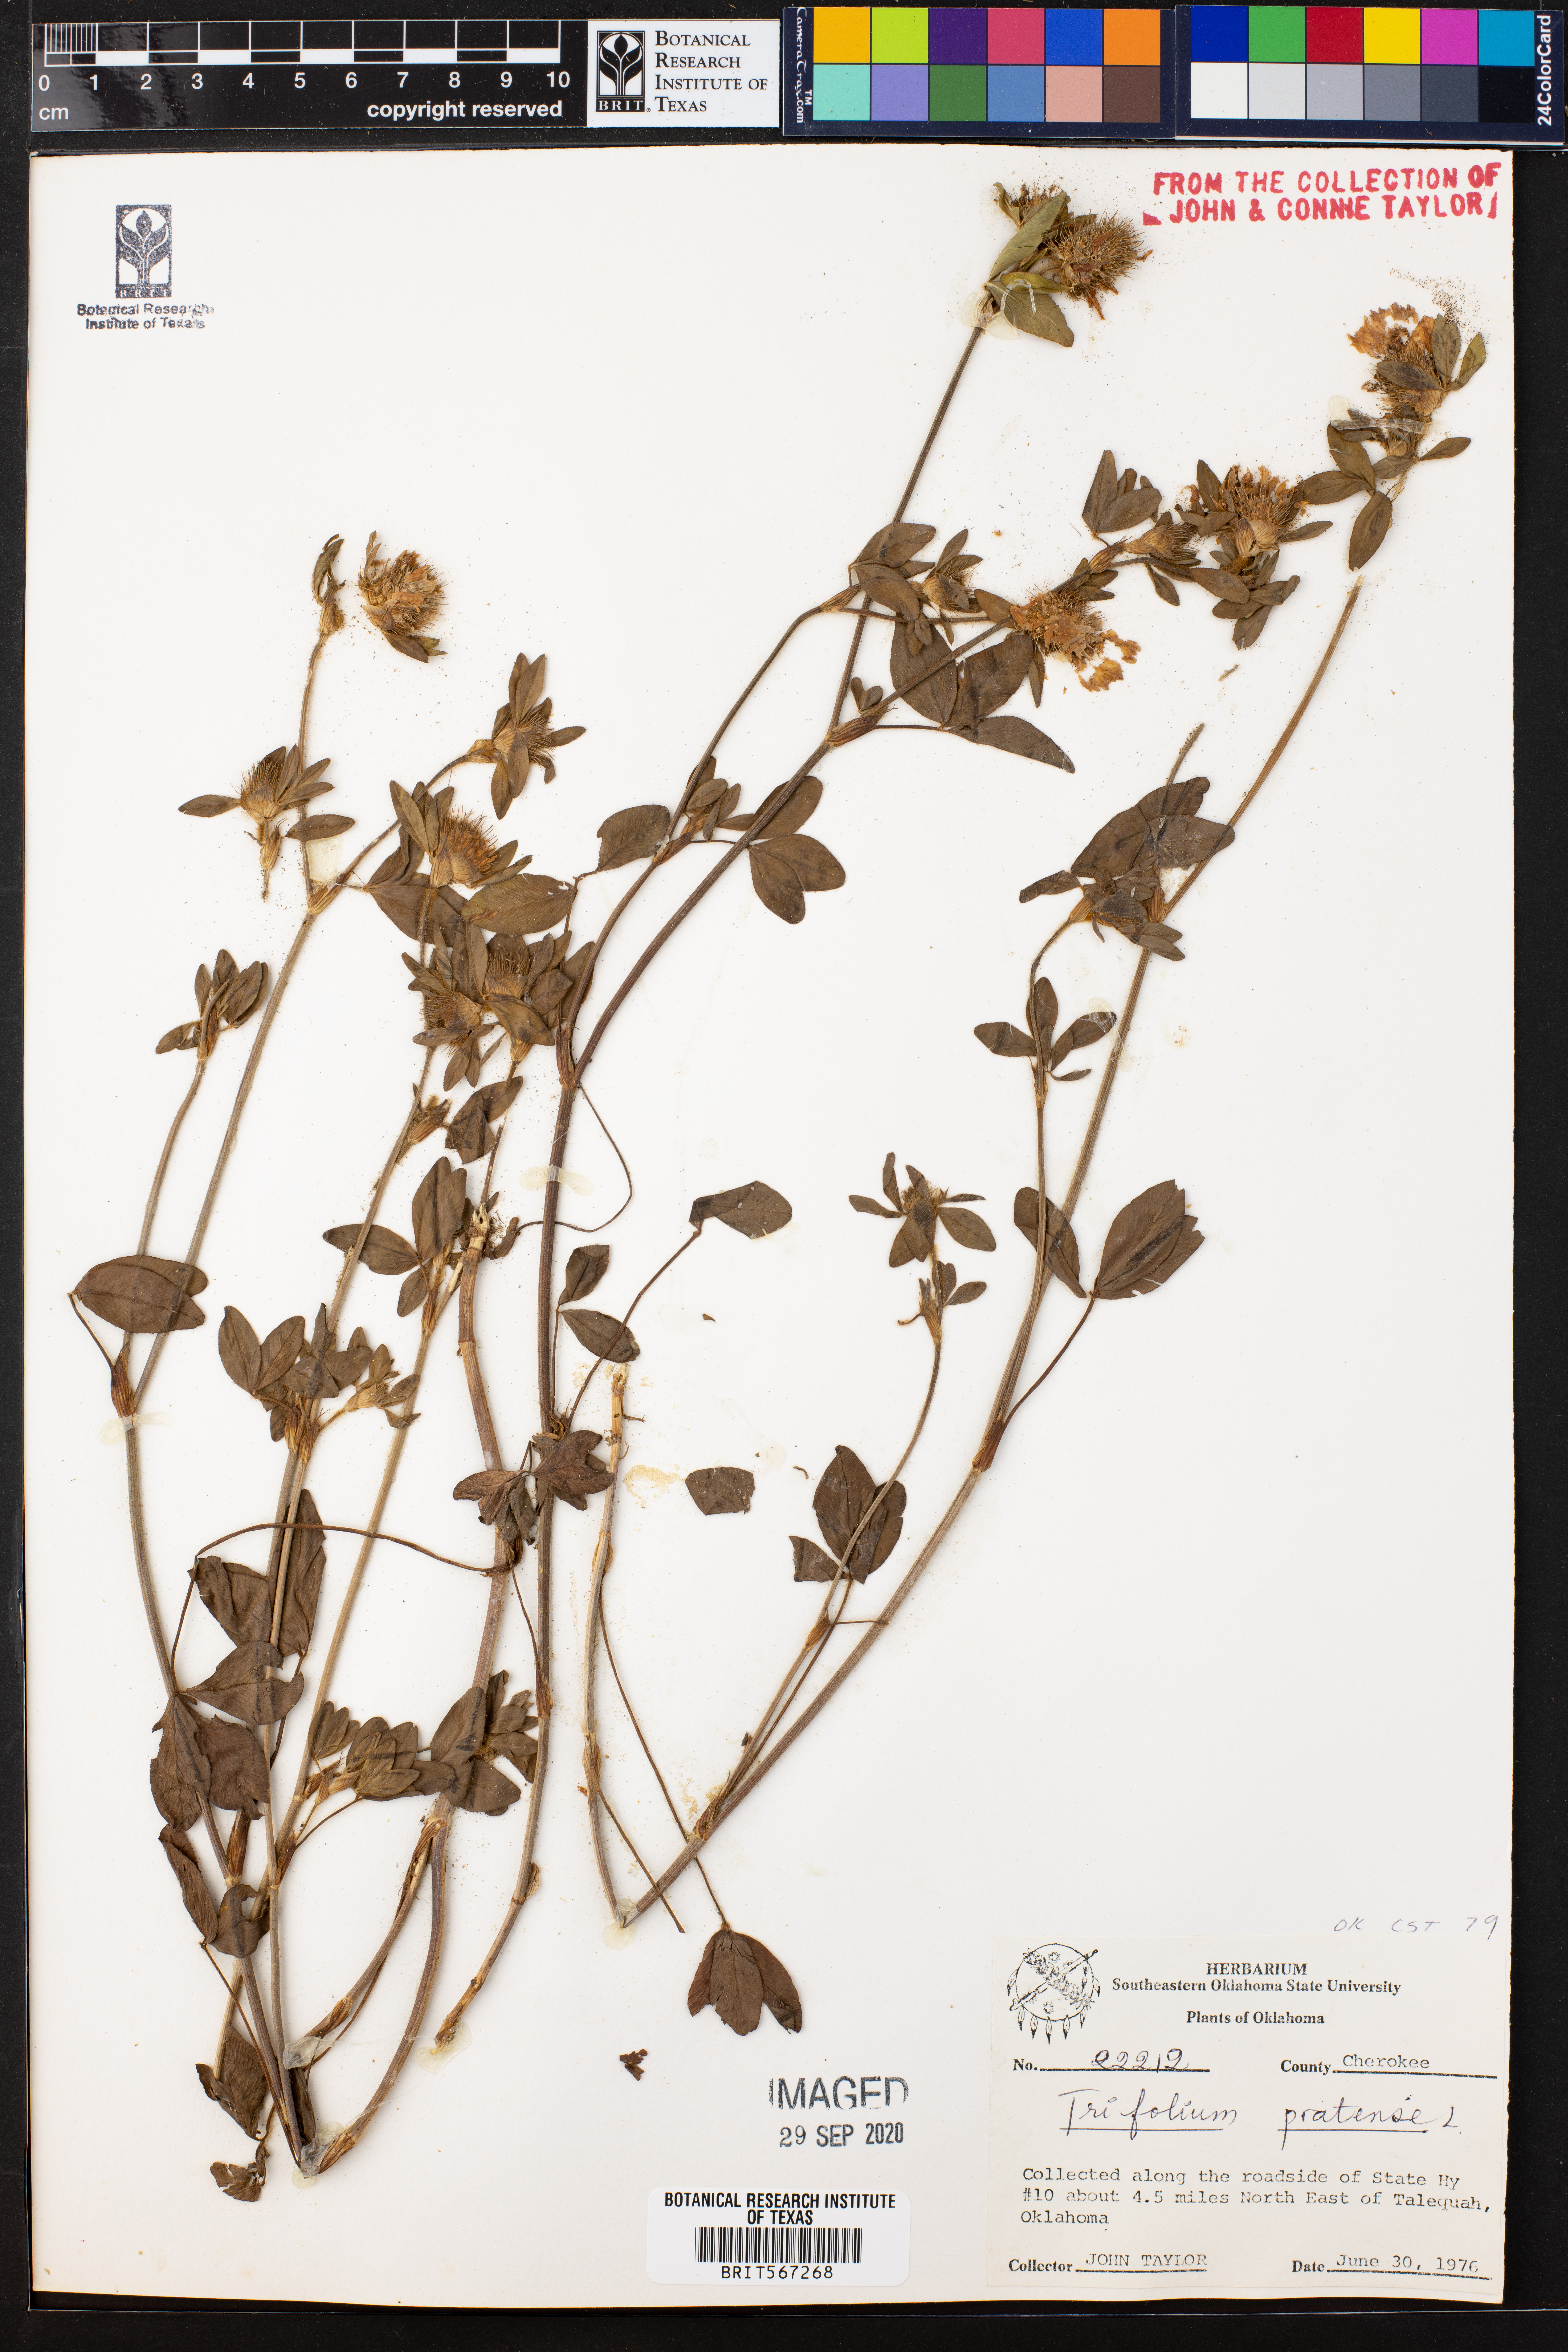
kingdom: Plantae
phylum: Tracheophyta
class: Magnoliopsida
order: Fabales
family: Fabaceae
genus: Trifolium
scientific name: Trifolium pratense
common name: Red clover
